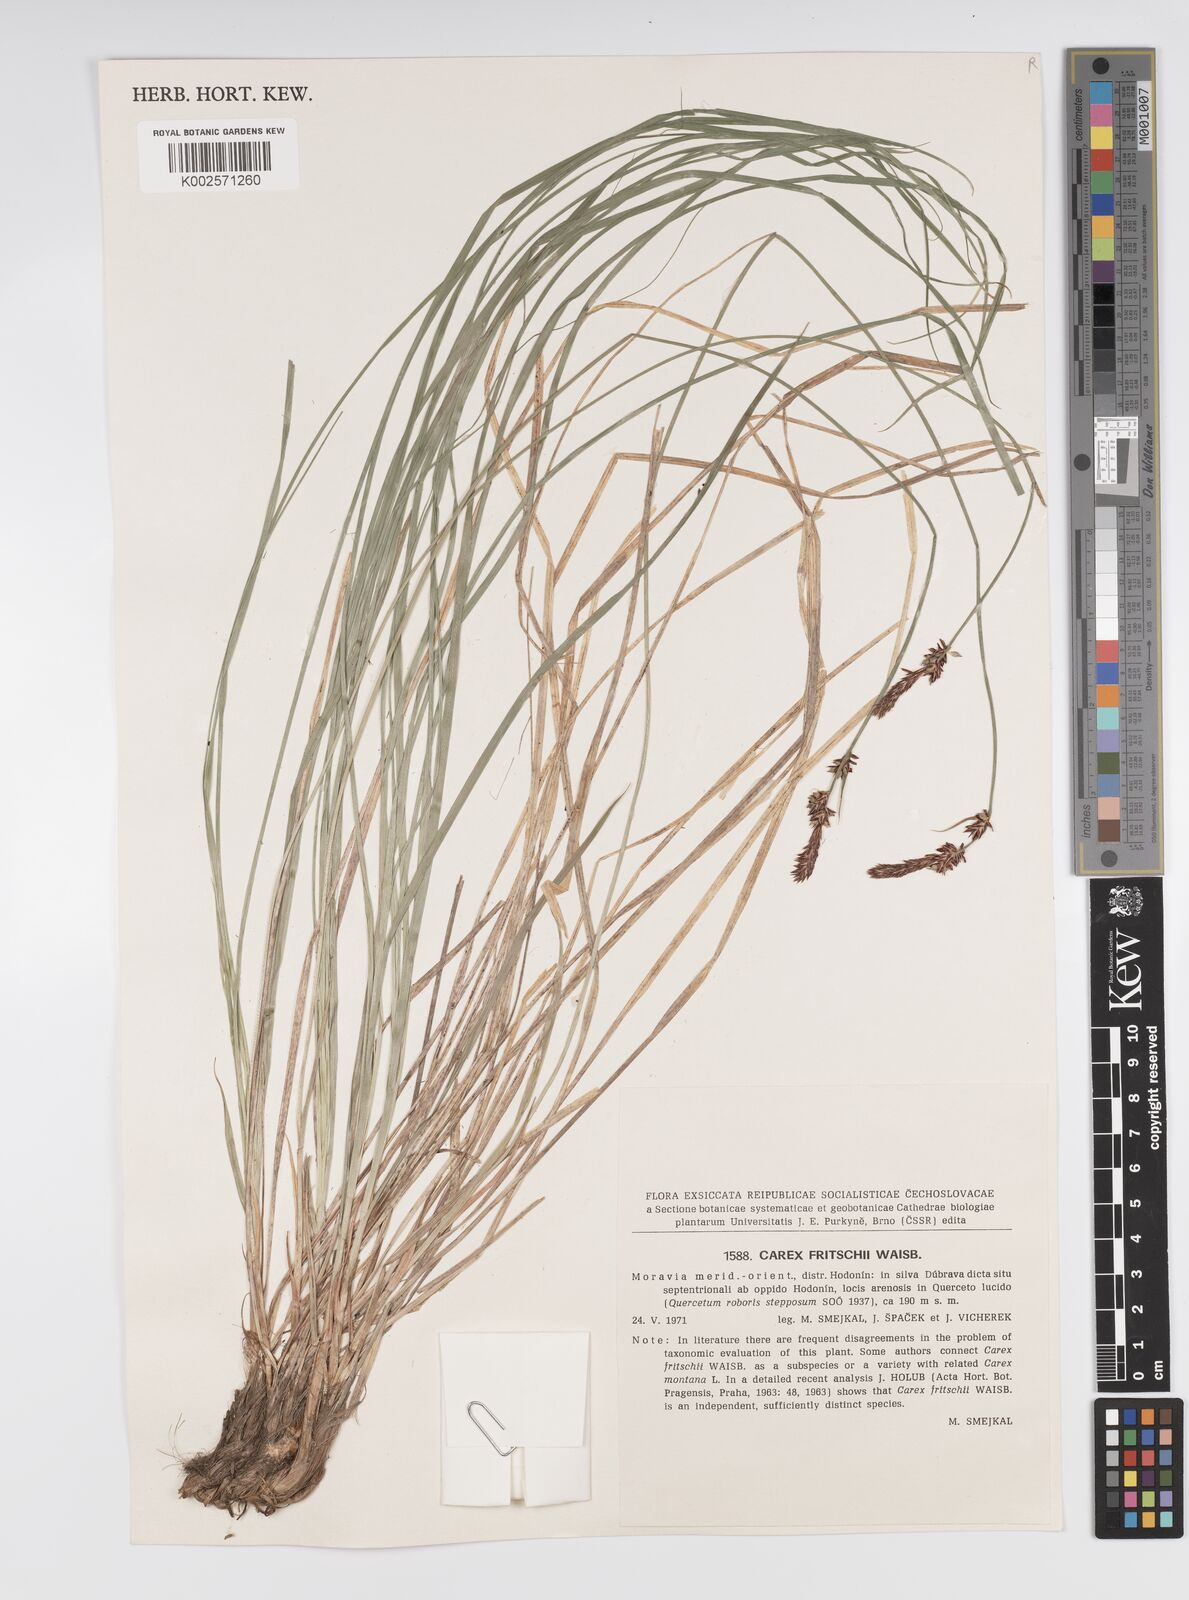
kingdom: Plantae
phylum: Tracheophyta
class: Liliopsida
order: Poales
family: Cyperaceae
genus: Carex
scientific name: Carex fritschii
